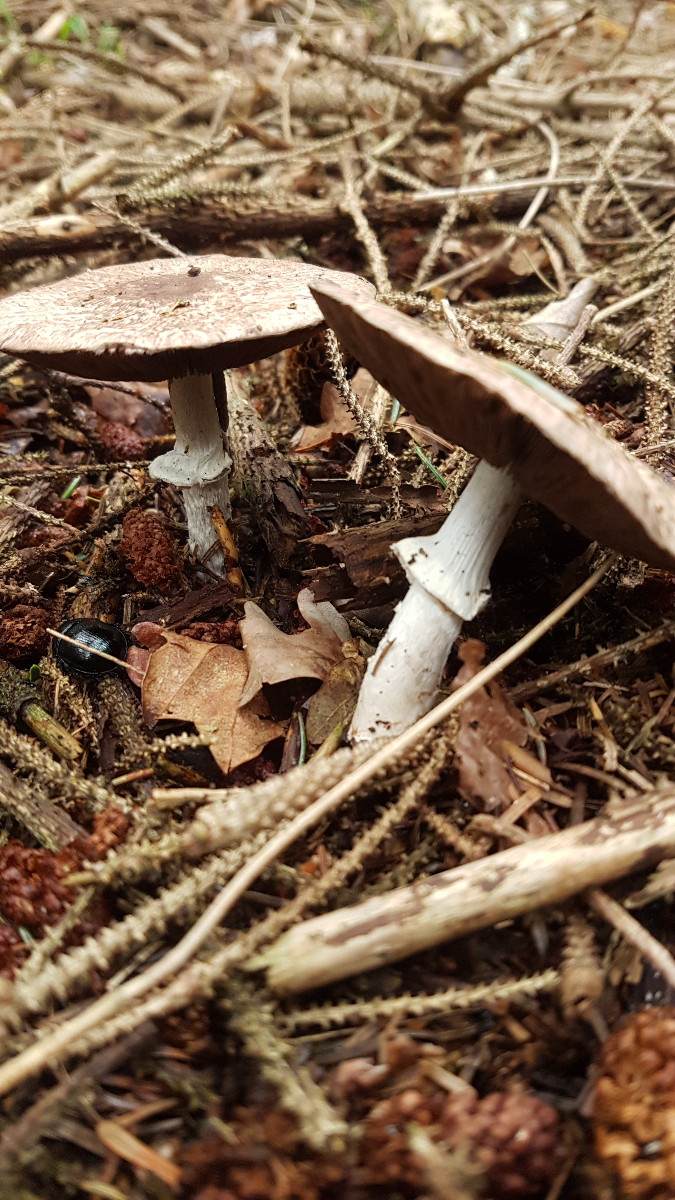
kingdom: Fungi
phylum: Basidiomycota
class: Agaricomycetes
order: Agaricales
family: Agaricaceae
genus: Agaricus
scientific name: Agaricus
